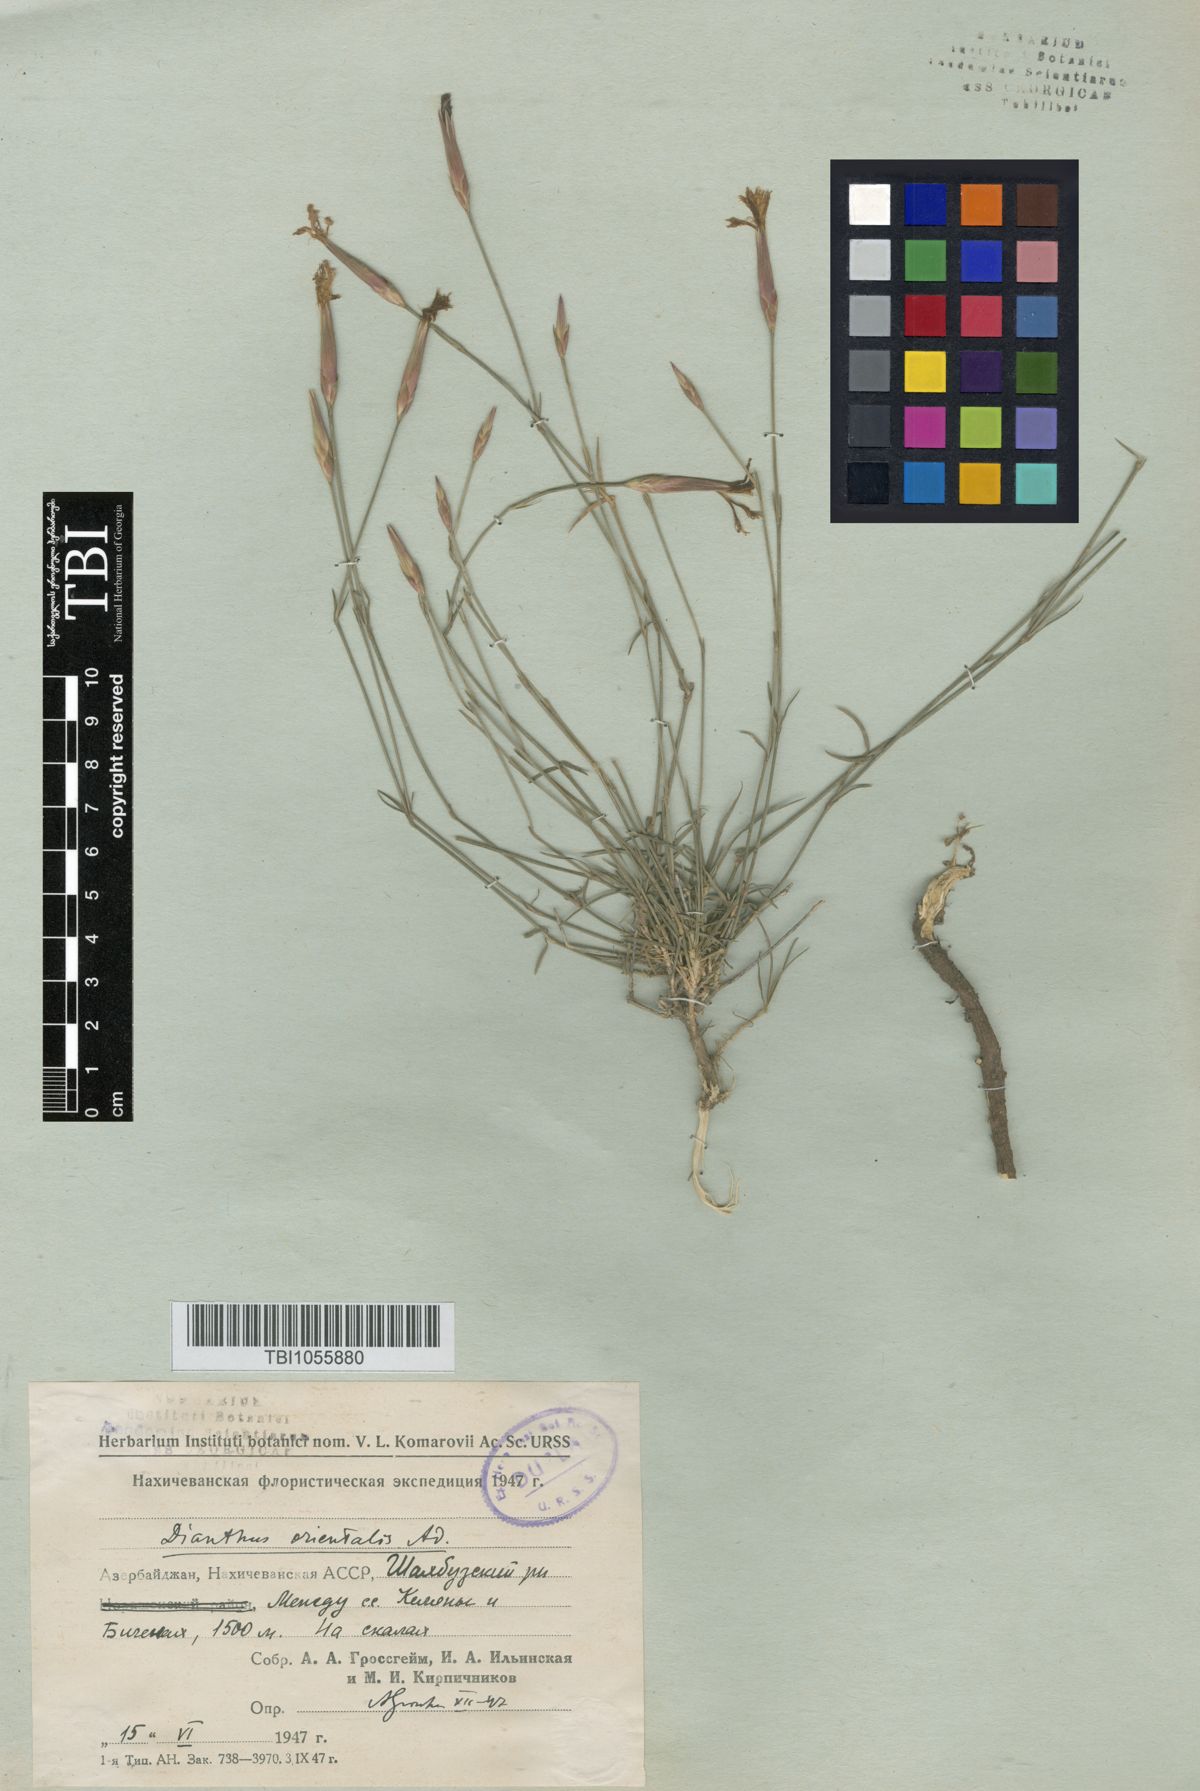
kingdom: Plantae
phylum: Tracheophyta
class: Magnoliopsida
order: Caryophyllales
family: Caryophyllaceae
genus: Dianthus
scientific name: Dianthus orientalis
